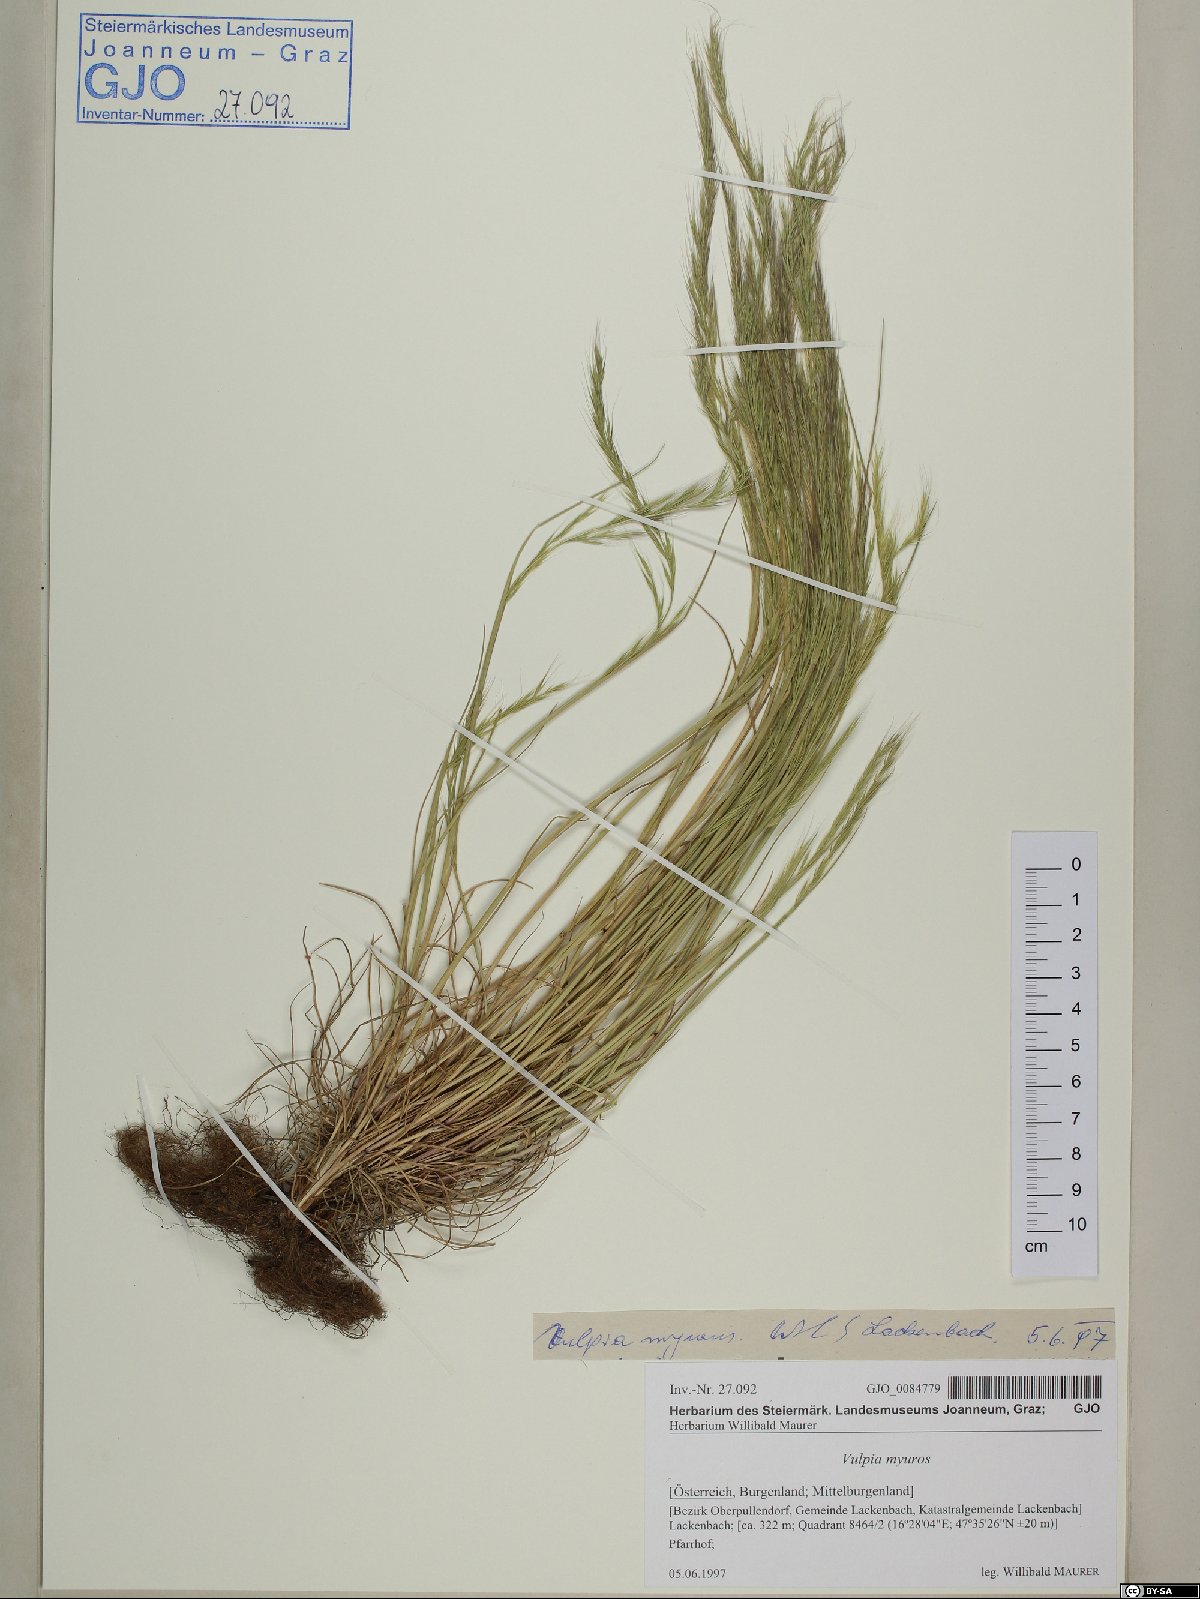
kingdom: Plantae
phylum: Tracheophyta
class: Liliopsida
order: Poales
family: Poaceae
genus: Festuca
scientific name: Festuca myuros
